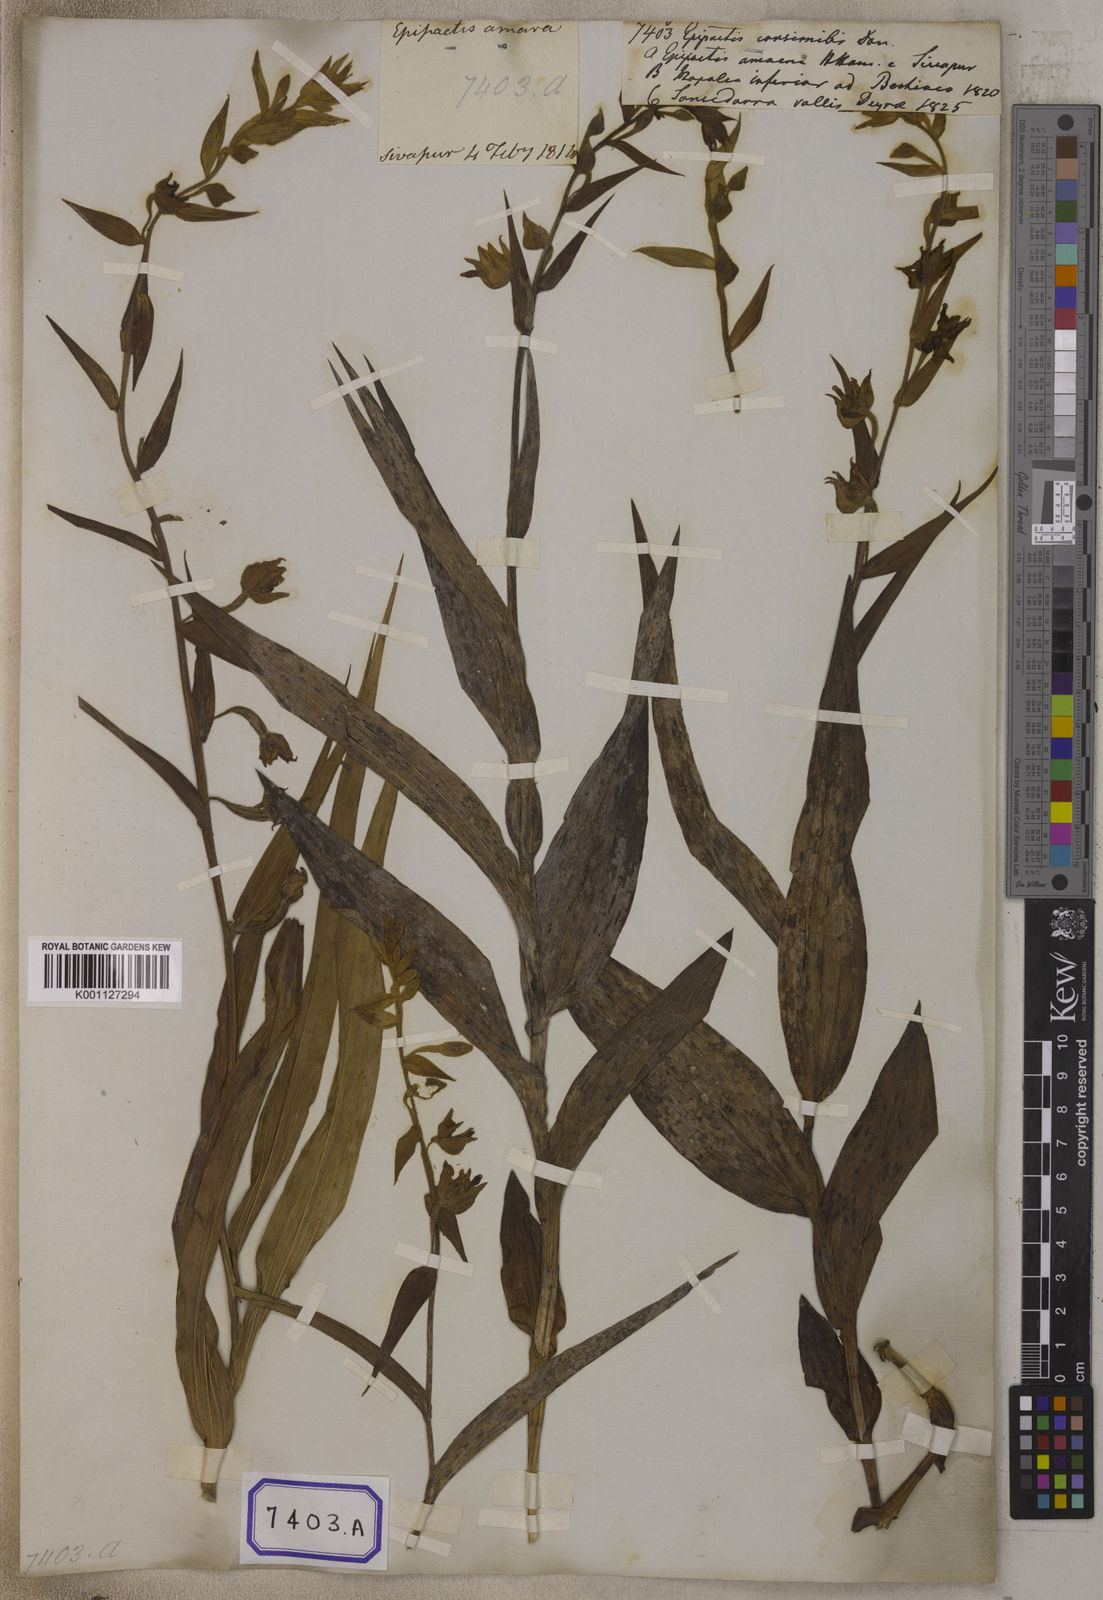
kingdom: Plantae
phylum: Tracheophyta
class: Liliopsida
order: Asparagales
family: Orchidaceae
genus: Epipactis
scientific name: Epipactis
